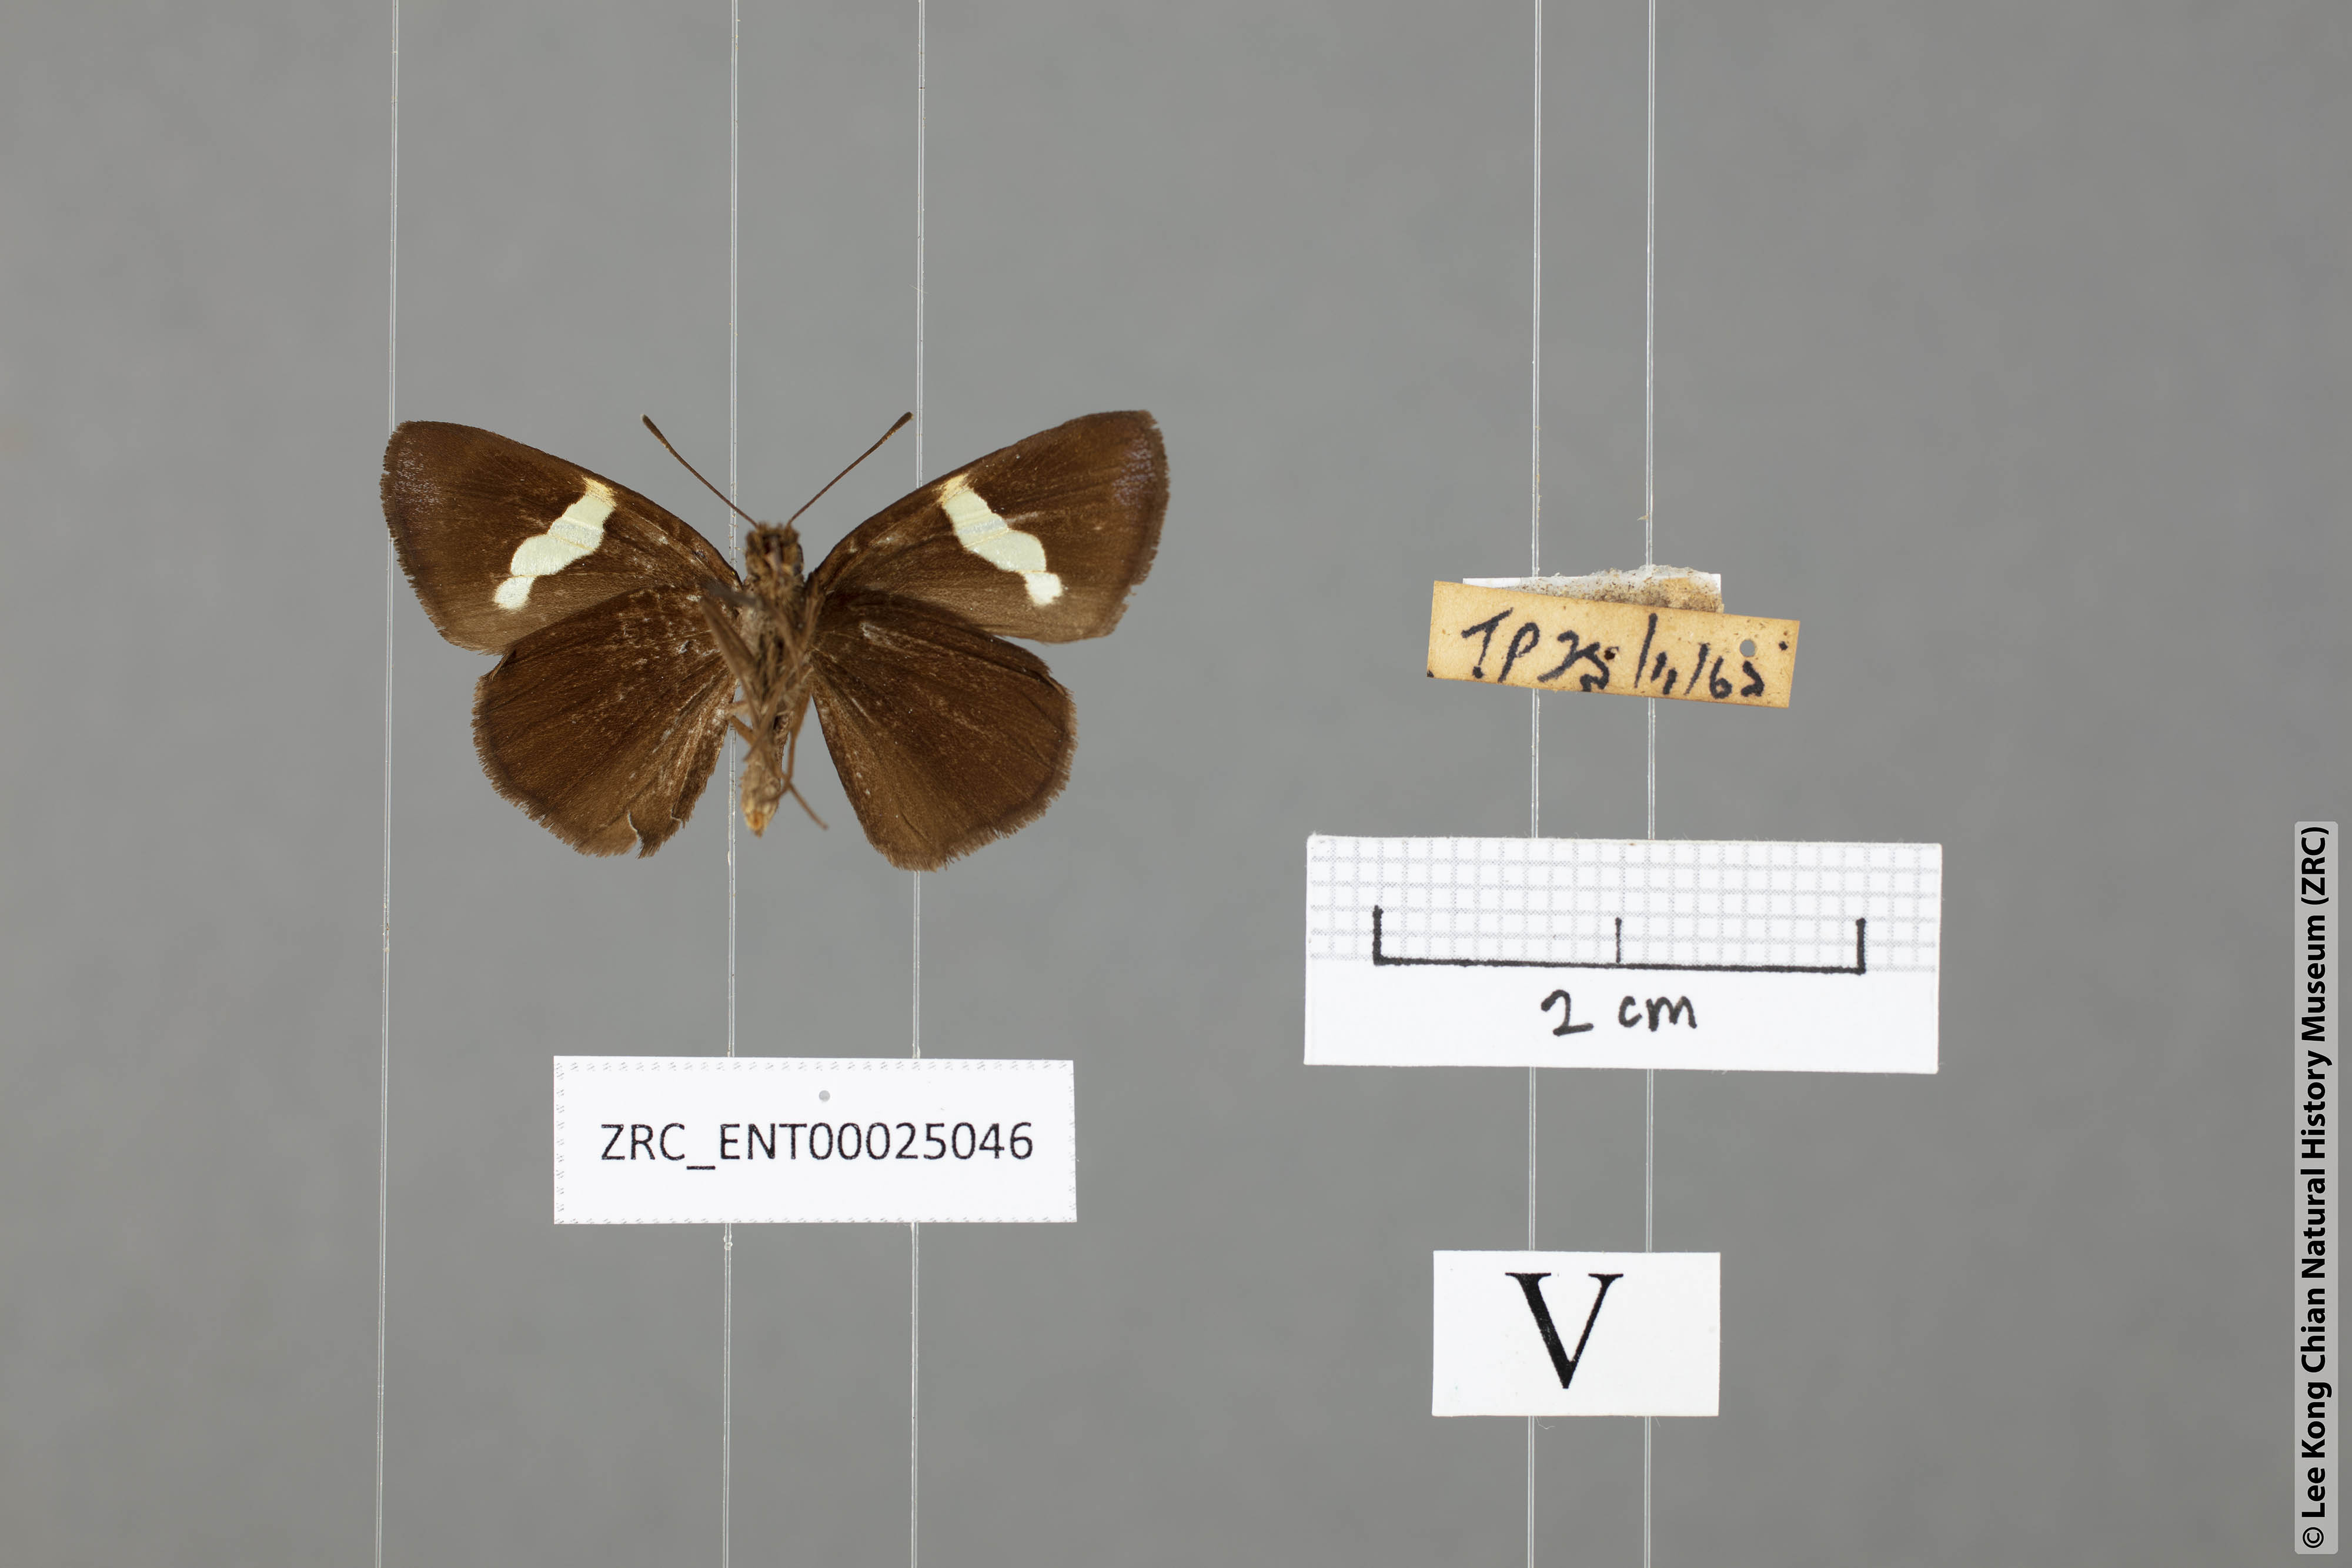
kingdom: Animalia
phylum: Arthropoda
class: Insecta
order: Lepidoptera
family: Hesperiidae
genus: Notocrypta
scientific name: Notocrypta pria
